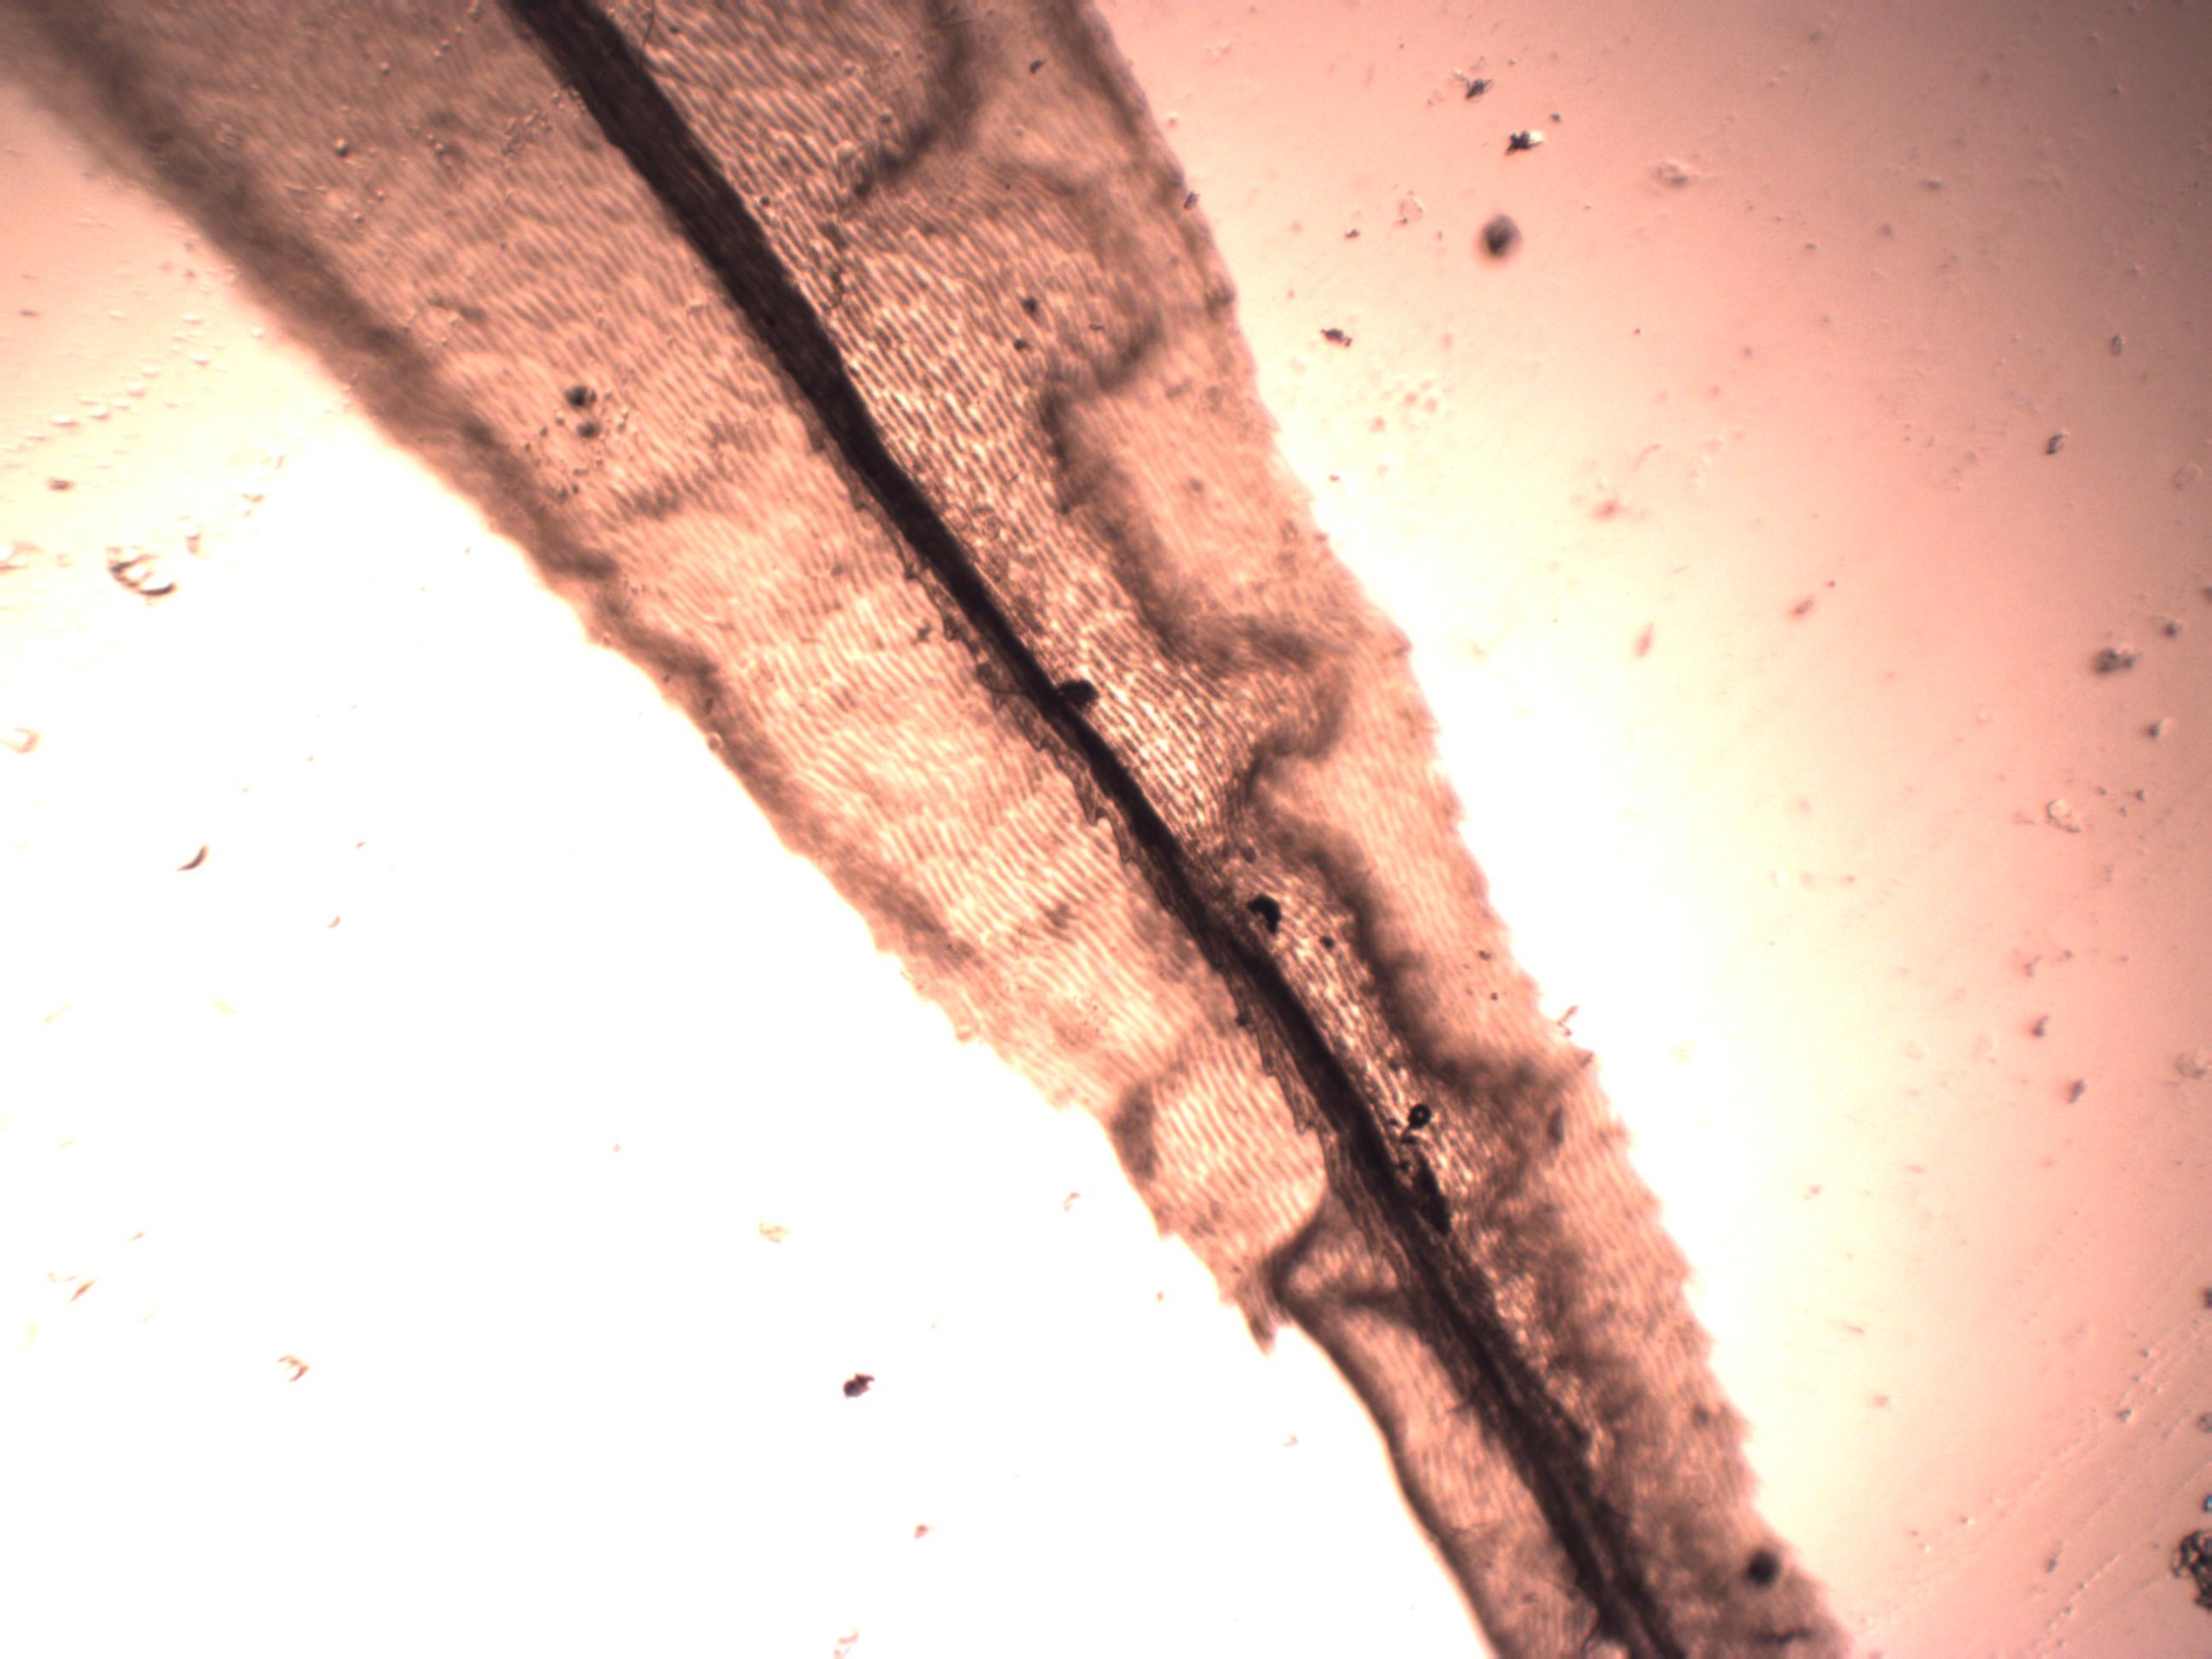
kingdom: Plantae
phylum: Bryophyta
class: Bryopsida
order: Dicranales
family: Dicranaceae
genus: Dicranum
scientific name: Dicranum polysetum
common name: Bølgebladet kløvtand
